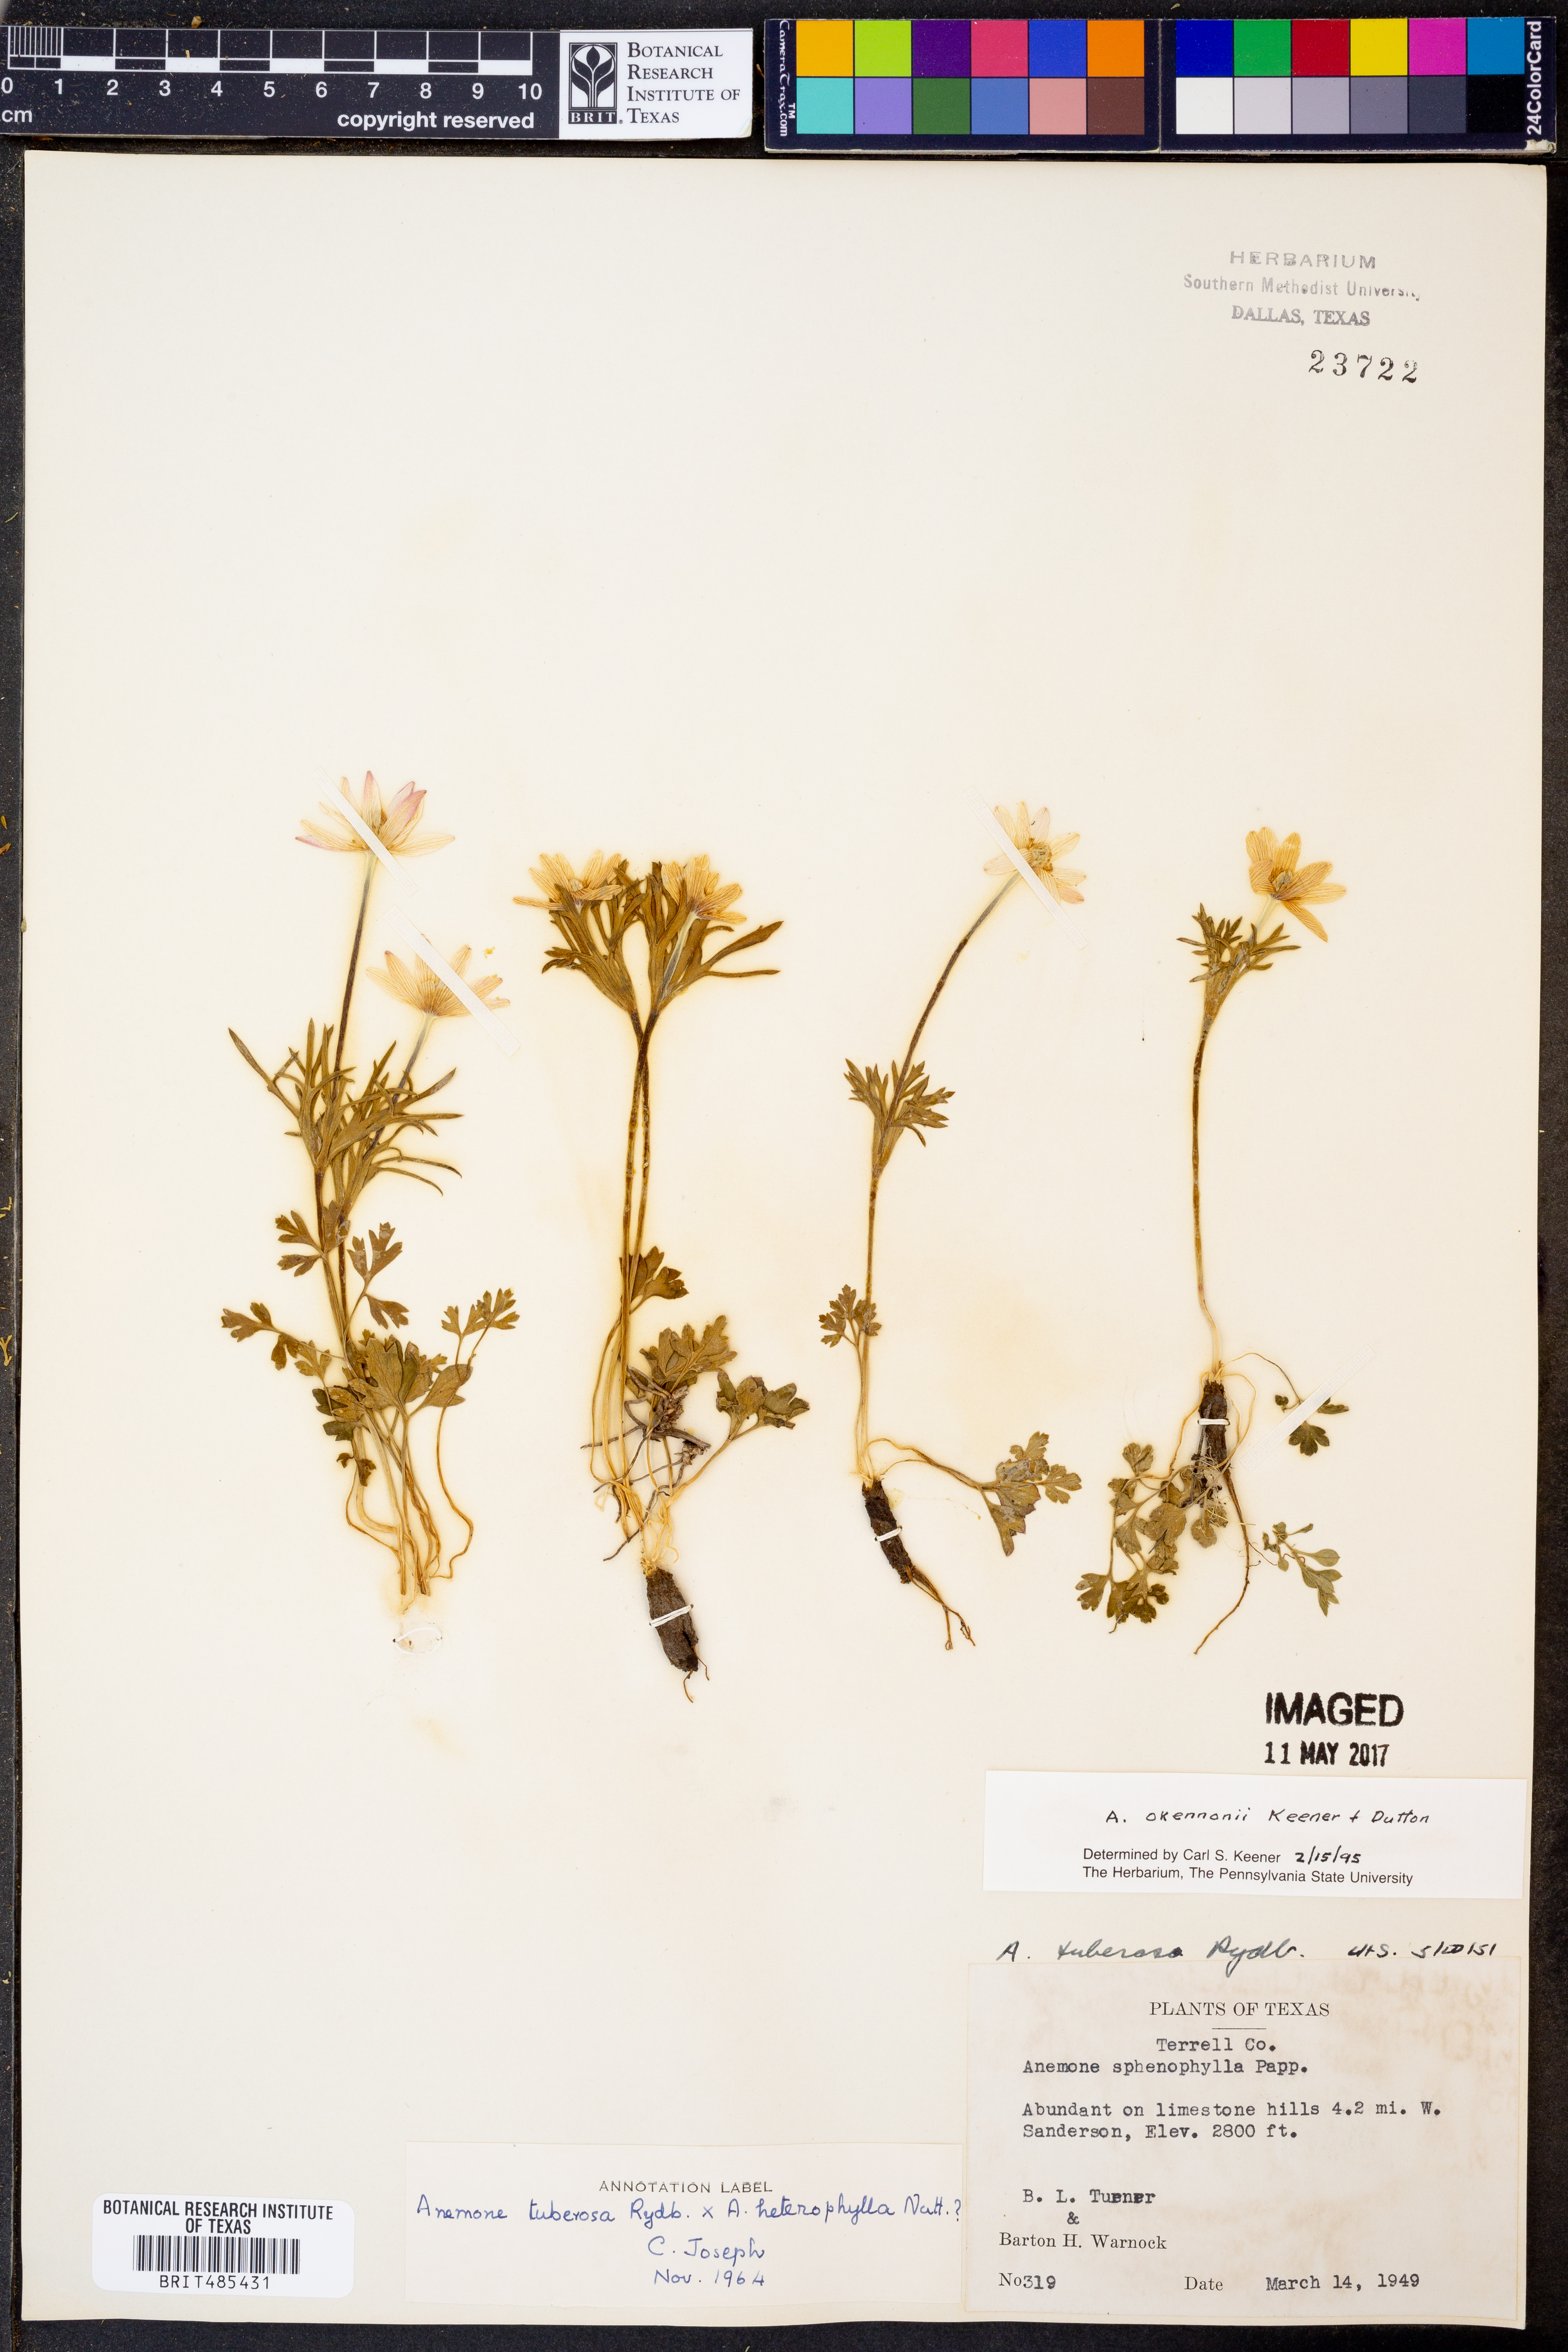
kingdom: Plantae
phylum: Tracheophyta
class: Magnoliopsida
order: Ranunculales
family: Ranunculaceae
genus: Anemone
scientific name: Anemone tuberosa
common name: Desert anemone
